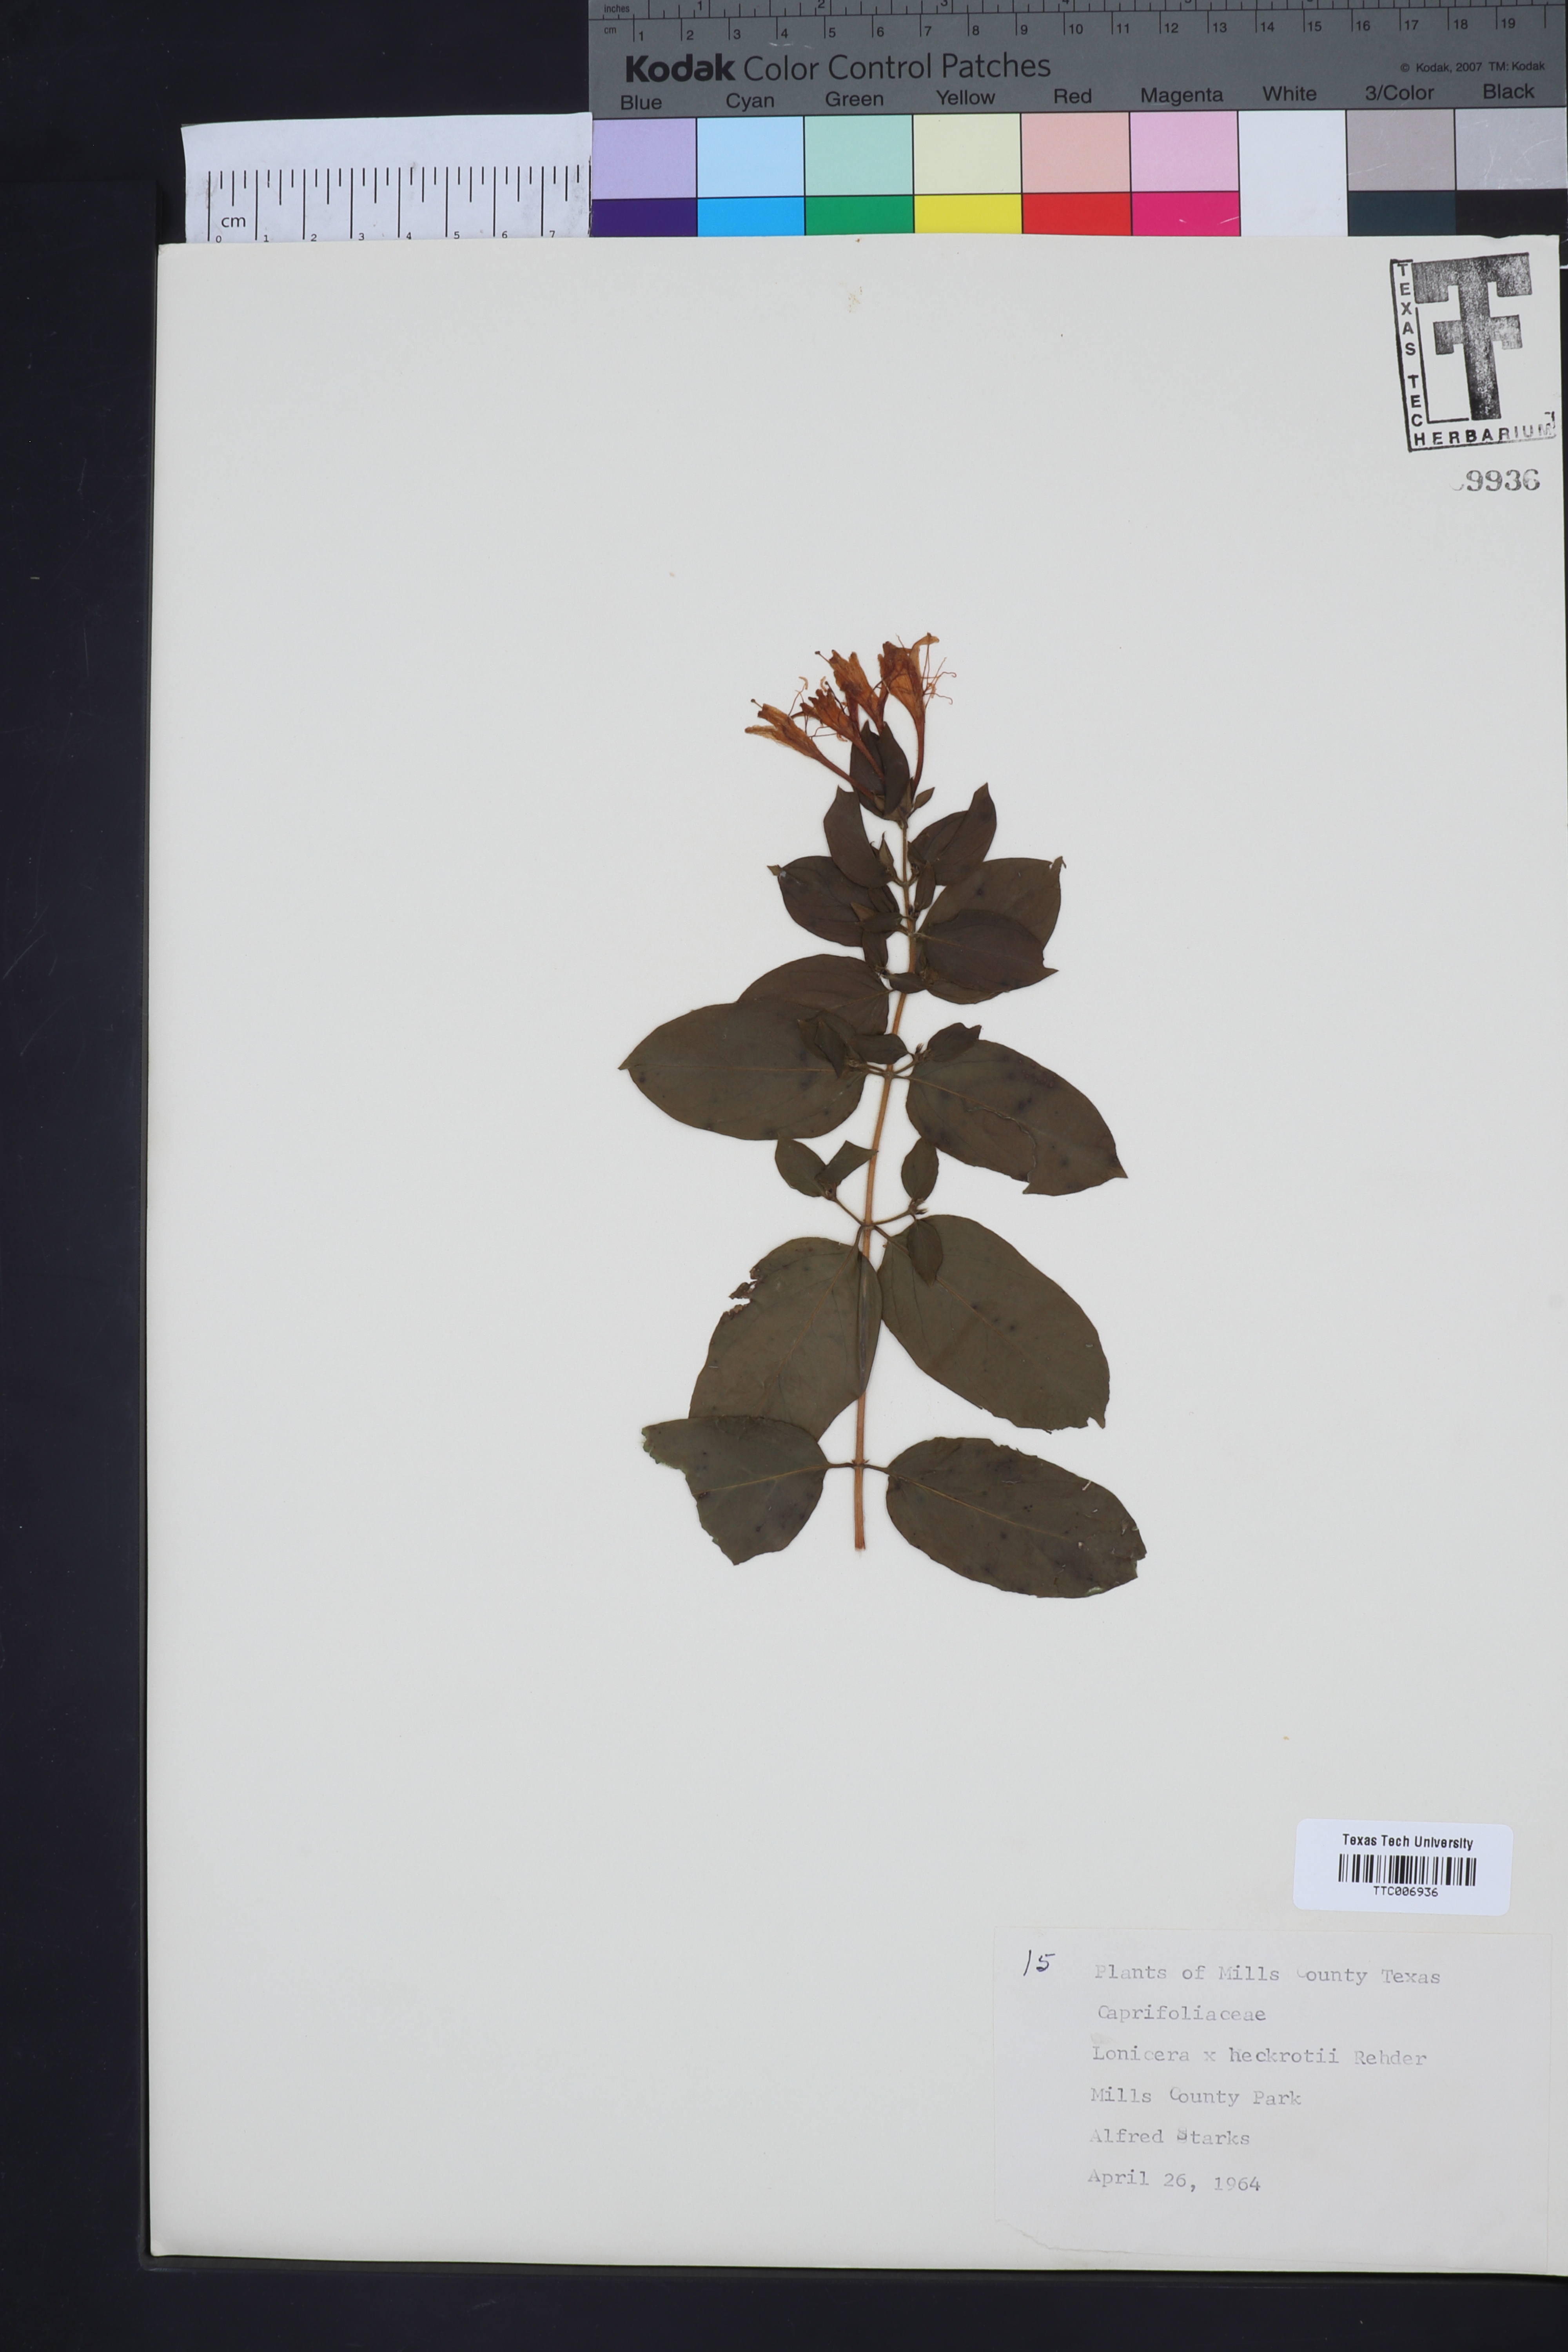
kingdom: Plantae
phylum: Tracheophyta
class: Magnoliopsida
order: Dipsacales
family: Caprifoliaceae
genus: Lonicera
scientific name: Lonicera heckrottii
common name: Honeysuckle
